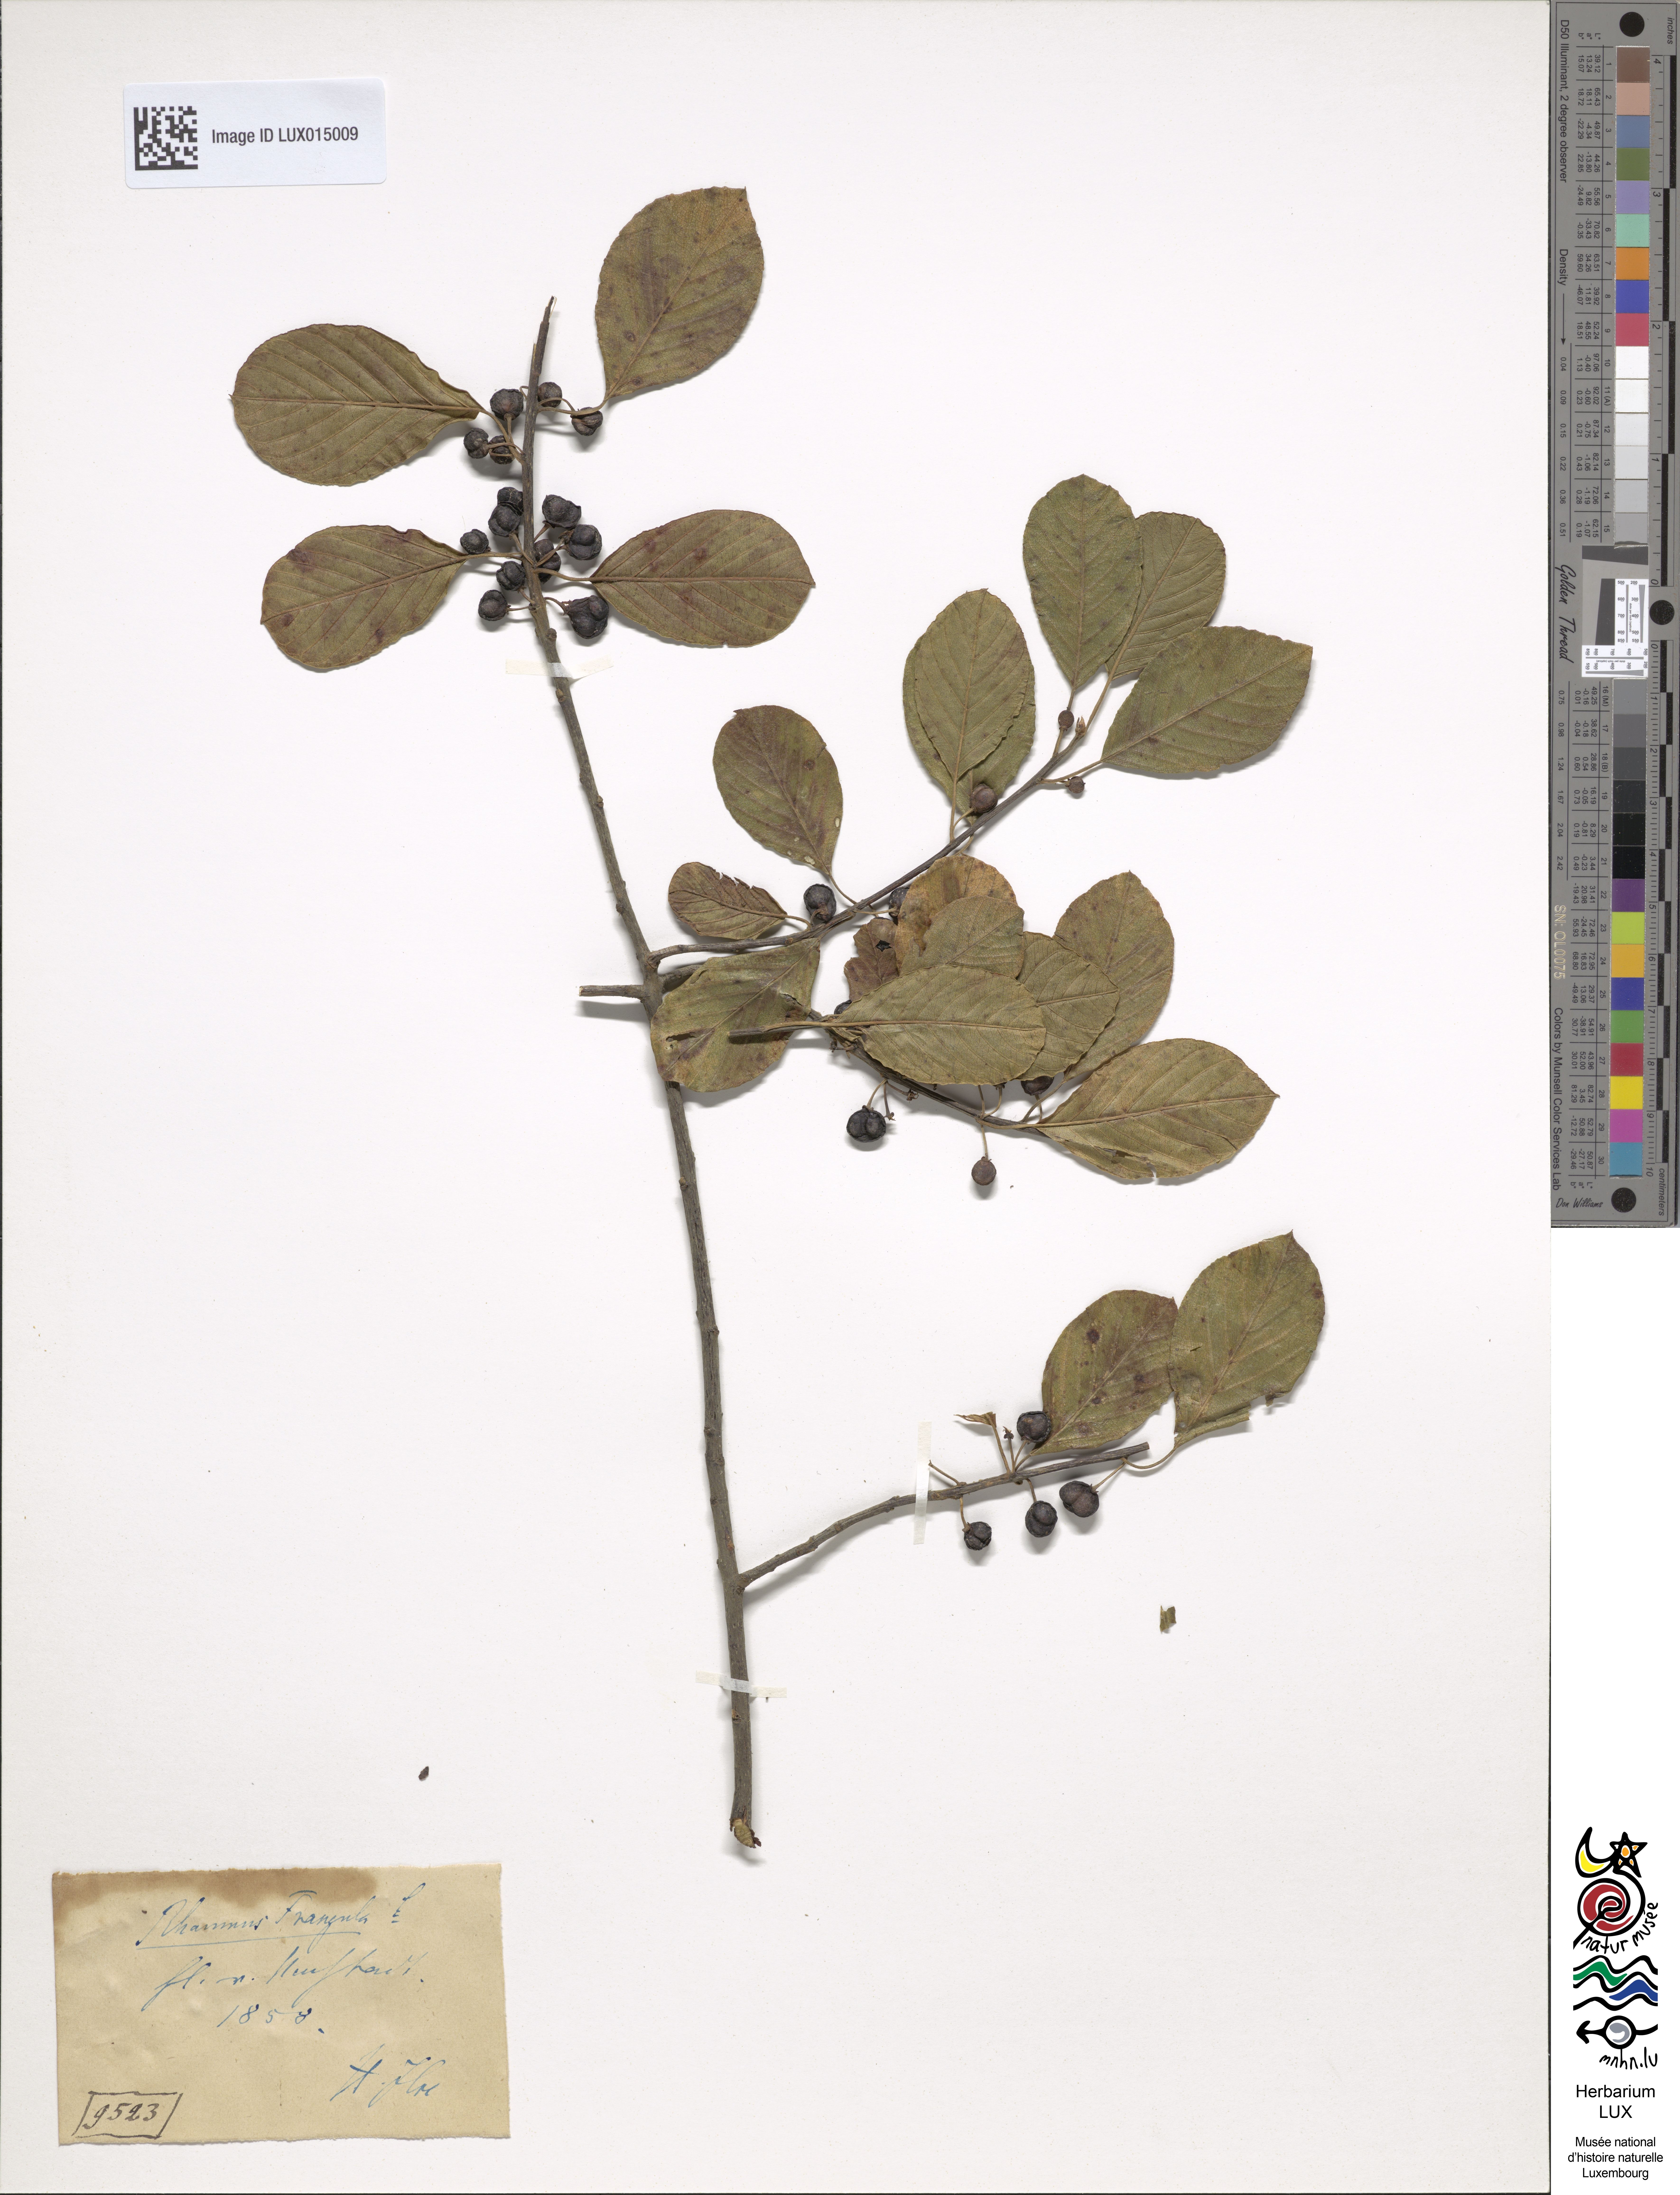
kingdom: Plantae
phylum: Tracheophyta
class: Magnoliopsida
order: Rosales
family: Rhamnaceae
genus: Frangula
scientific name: Frangula alnus
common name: Alder buckthorn
